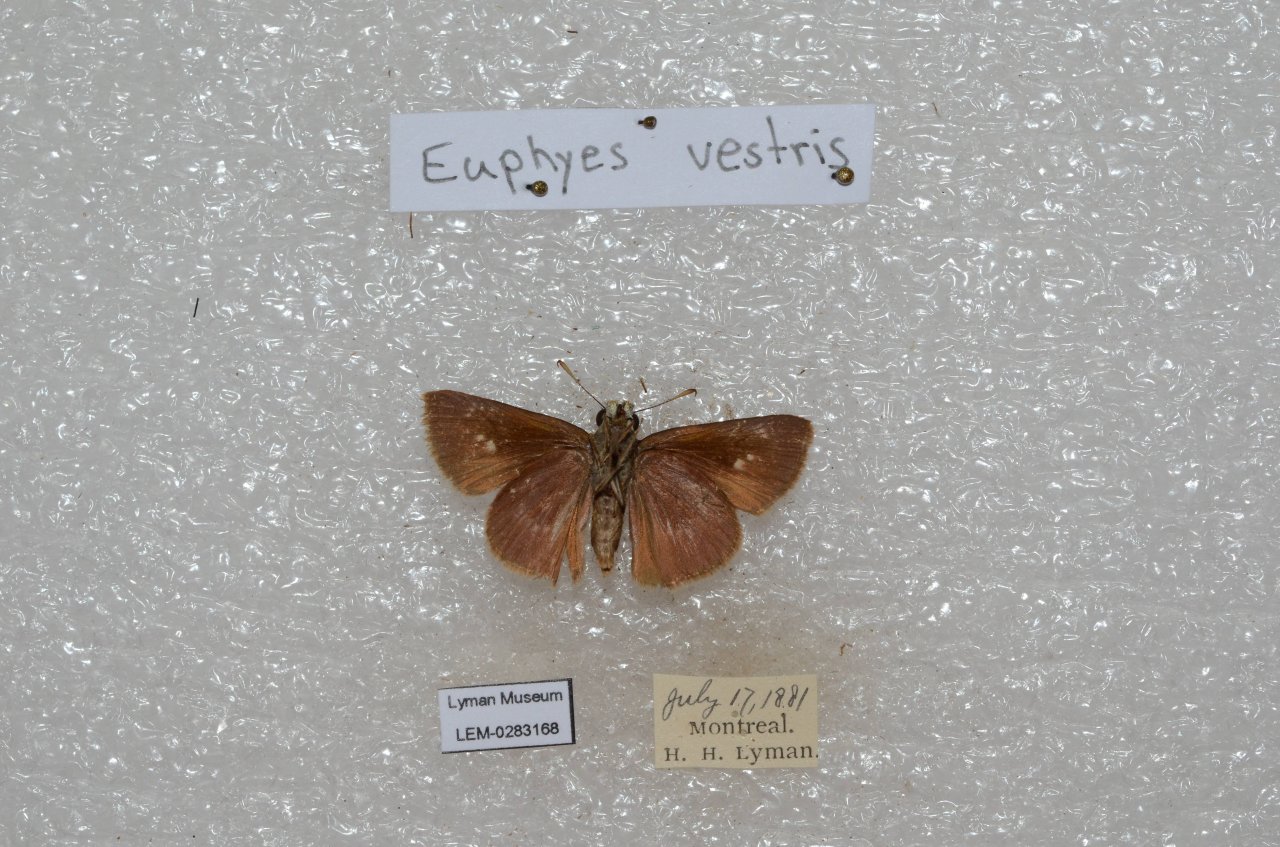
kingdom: Animalia
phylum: Arthropoda
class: Insecta
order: Lepidoptera
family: Hesperiidae
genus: Euphyes
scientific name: Euphyes vestris
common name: Dun Skipper
